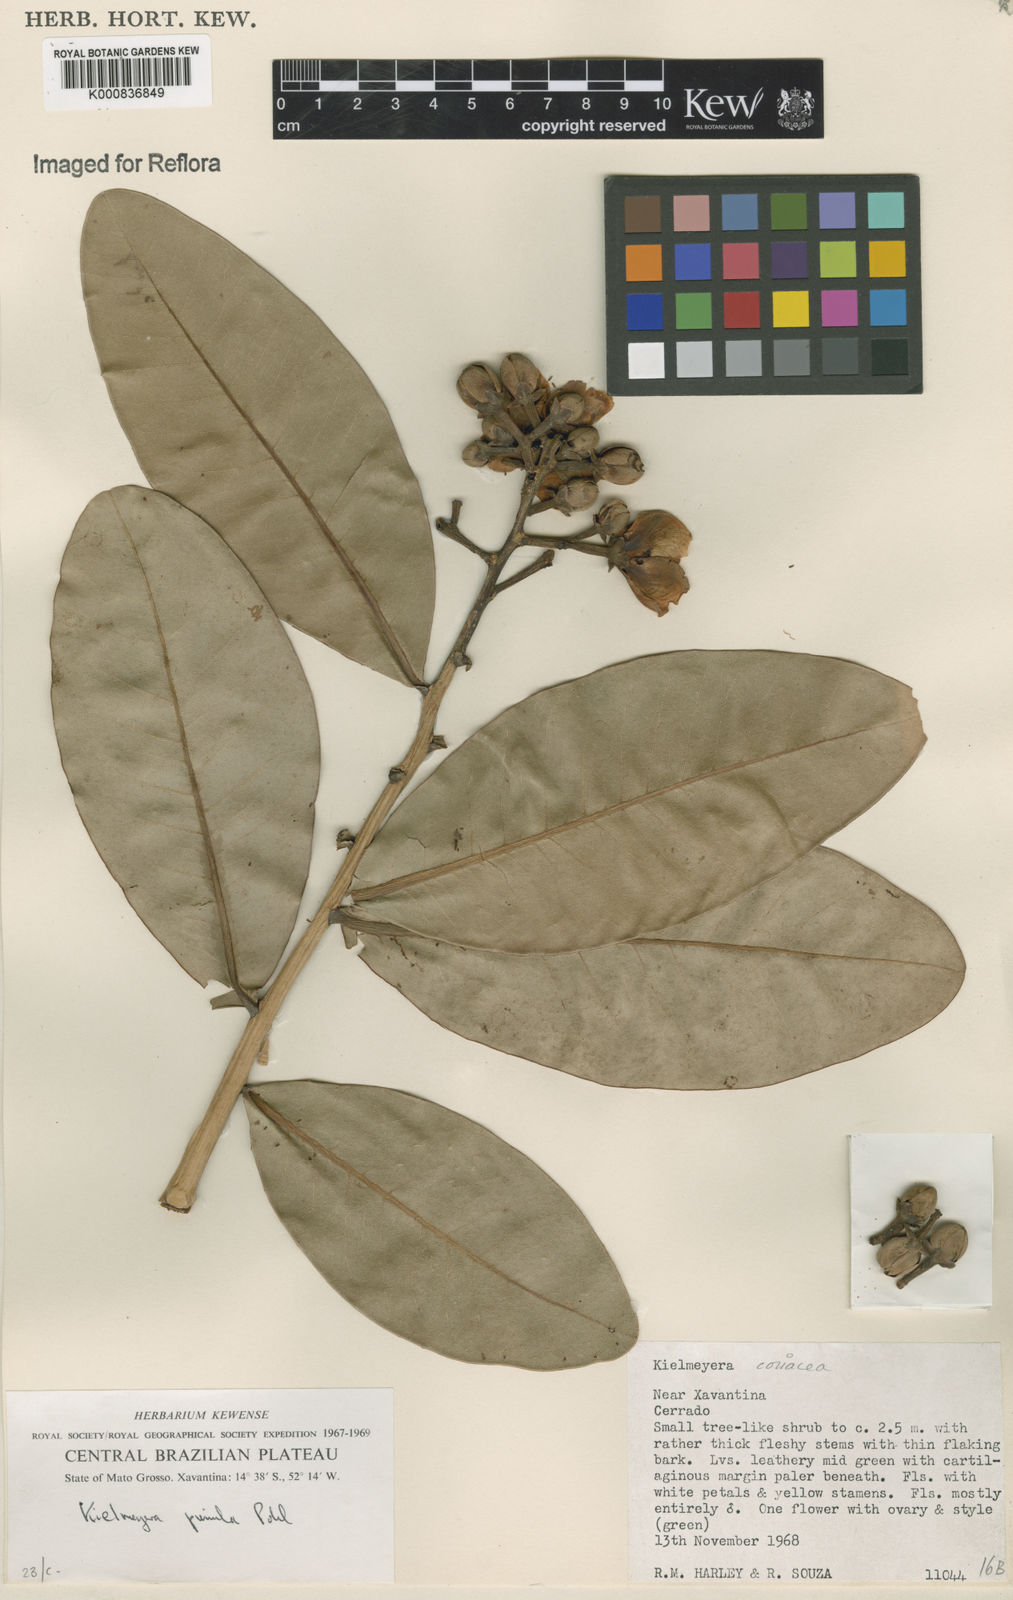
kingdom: Plantae
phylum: Tracheophyta
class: Magnoliopsida
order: Malpighiales
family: Calophyllaceae
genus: Kielmeyera
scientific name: Kielmeyera coriacea
